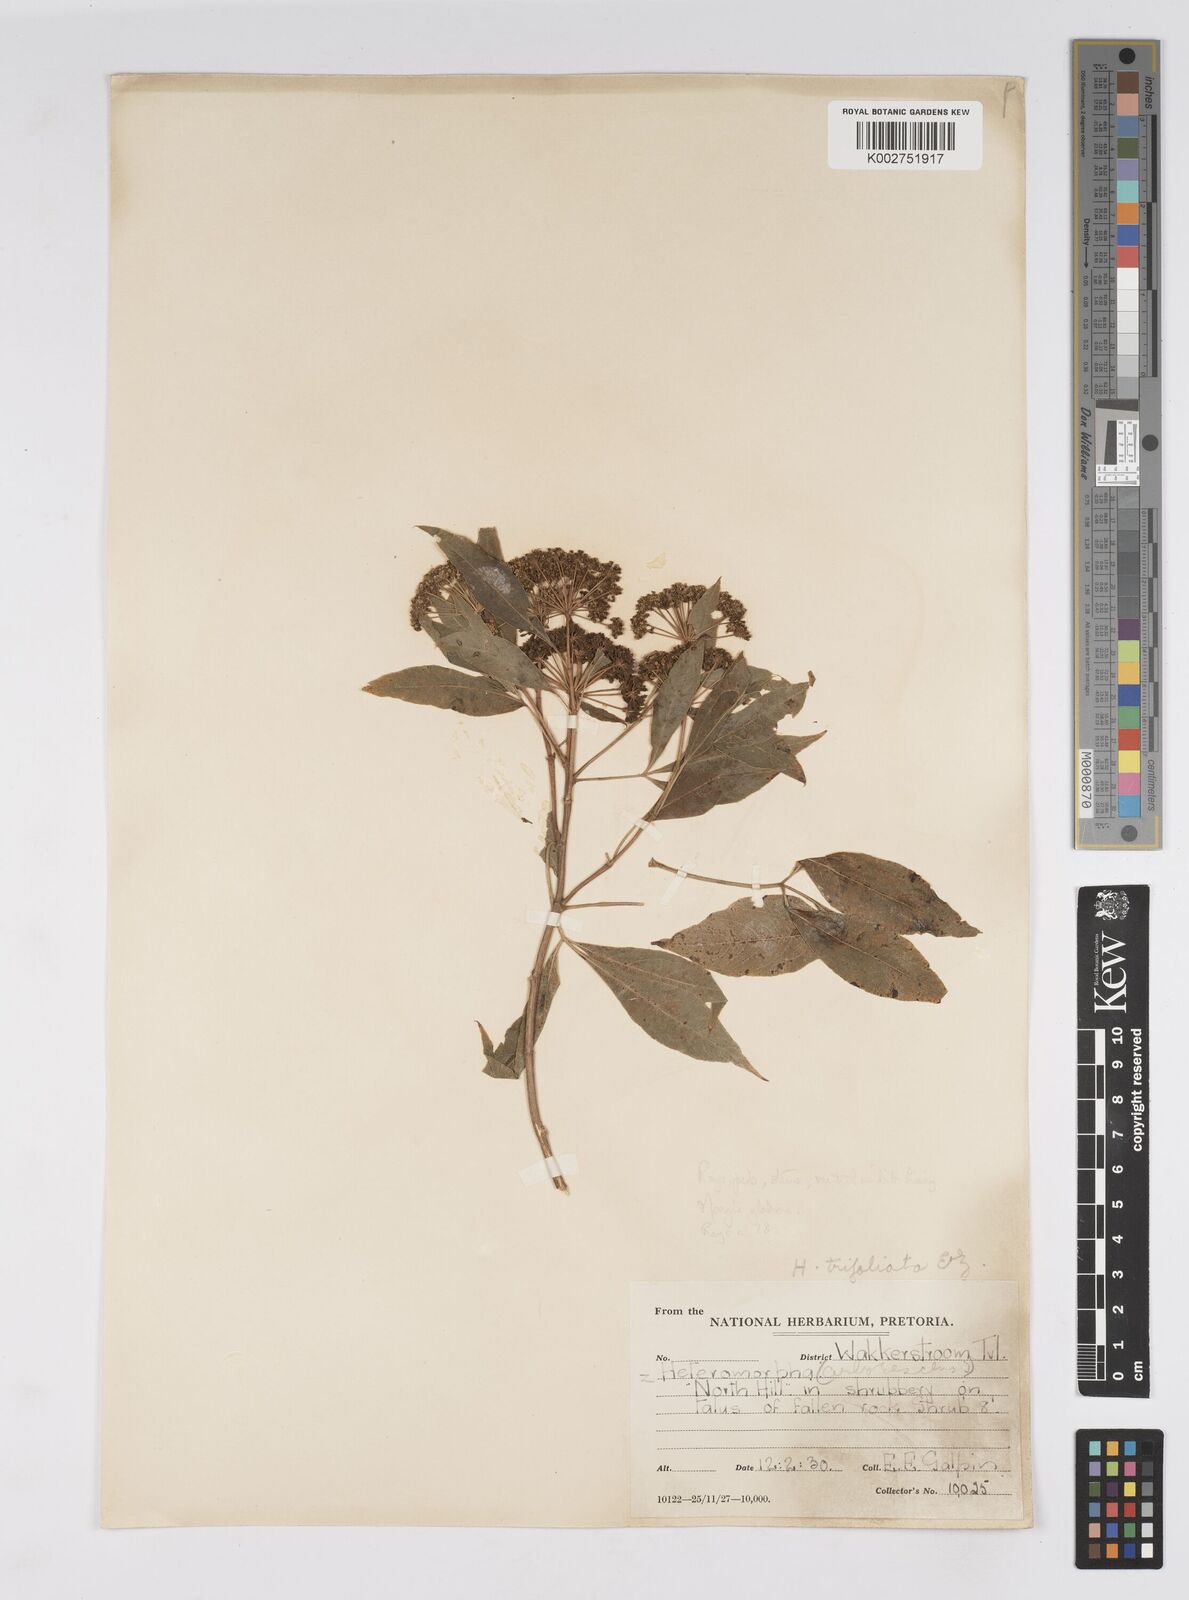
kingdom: Plantae
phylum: Tracheophyta
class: Magnoliopsida
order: Apiales
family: Apiaceae
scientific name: Apiaceae
